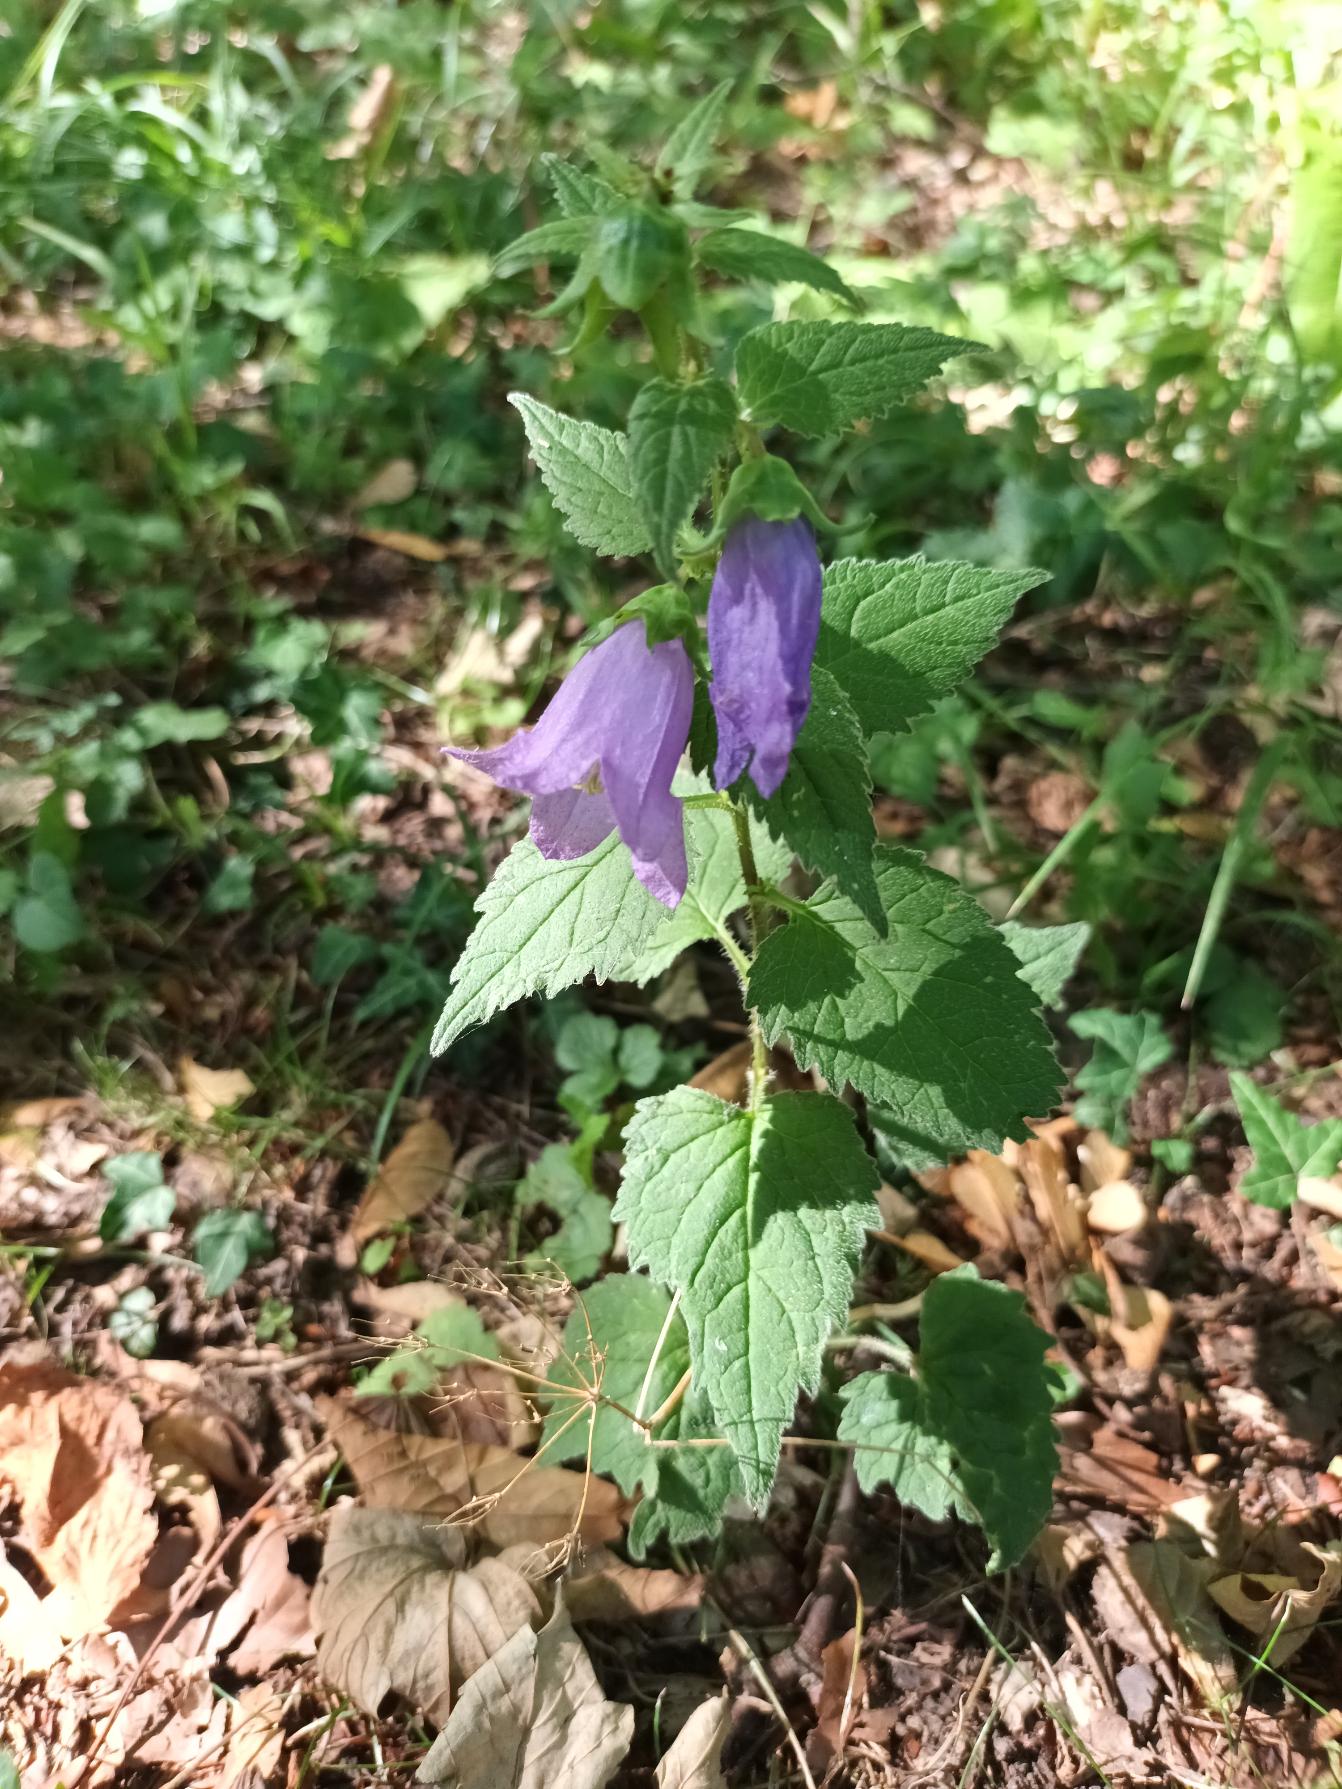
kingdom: Plantae
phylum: Tracheophyta
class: Magnoliopsida
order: Asterales
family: Campanulaceae
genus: Campanula
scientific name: Campanula trachelium
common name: Nælde-klokke
